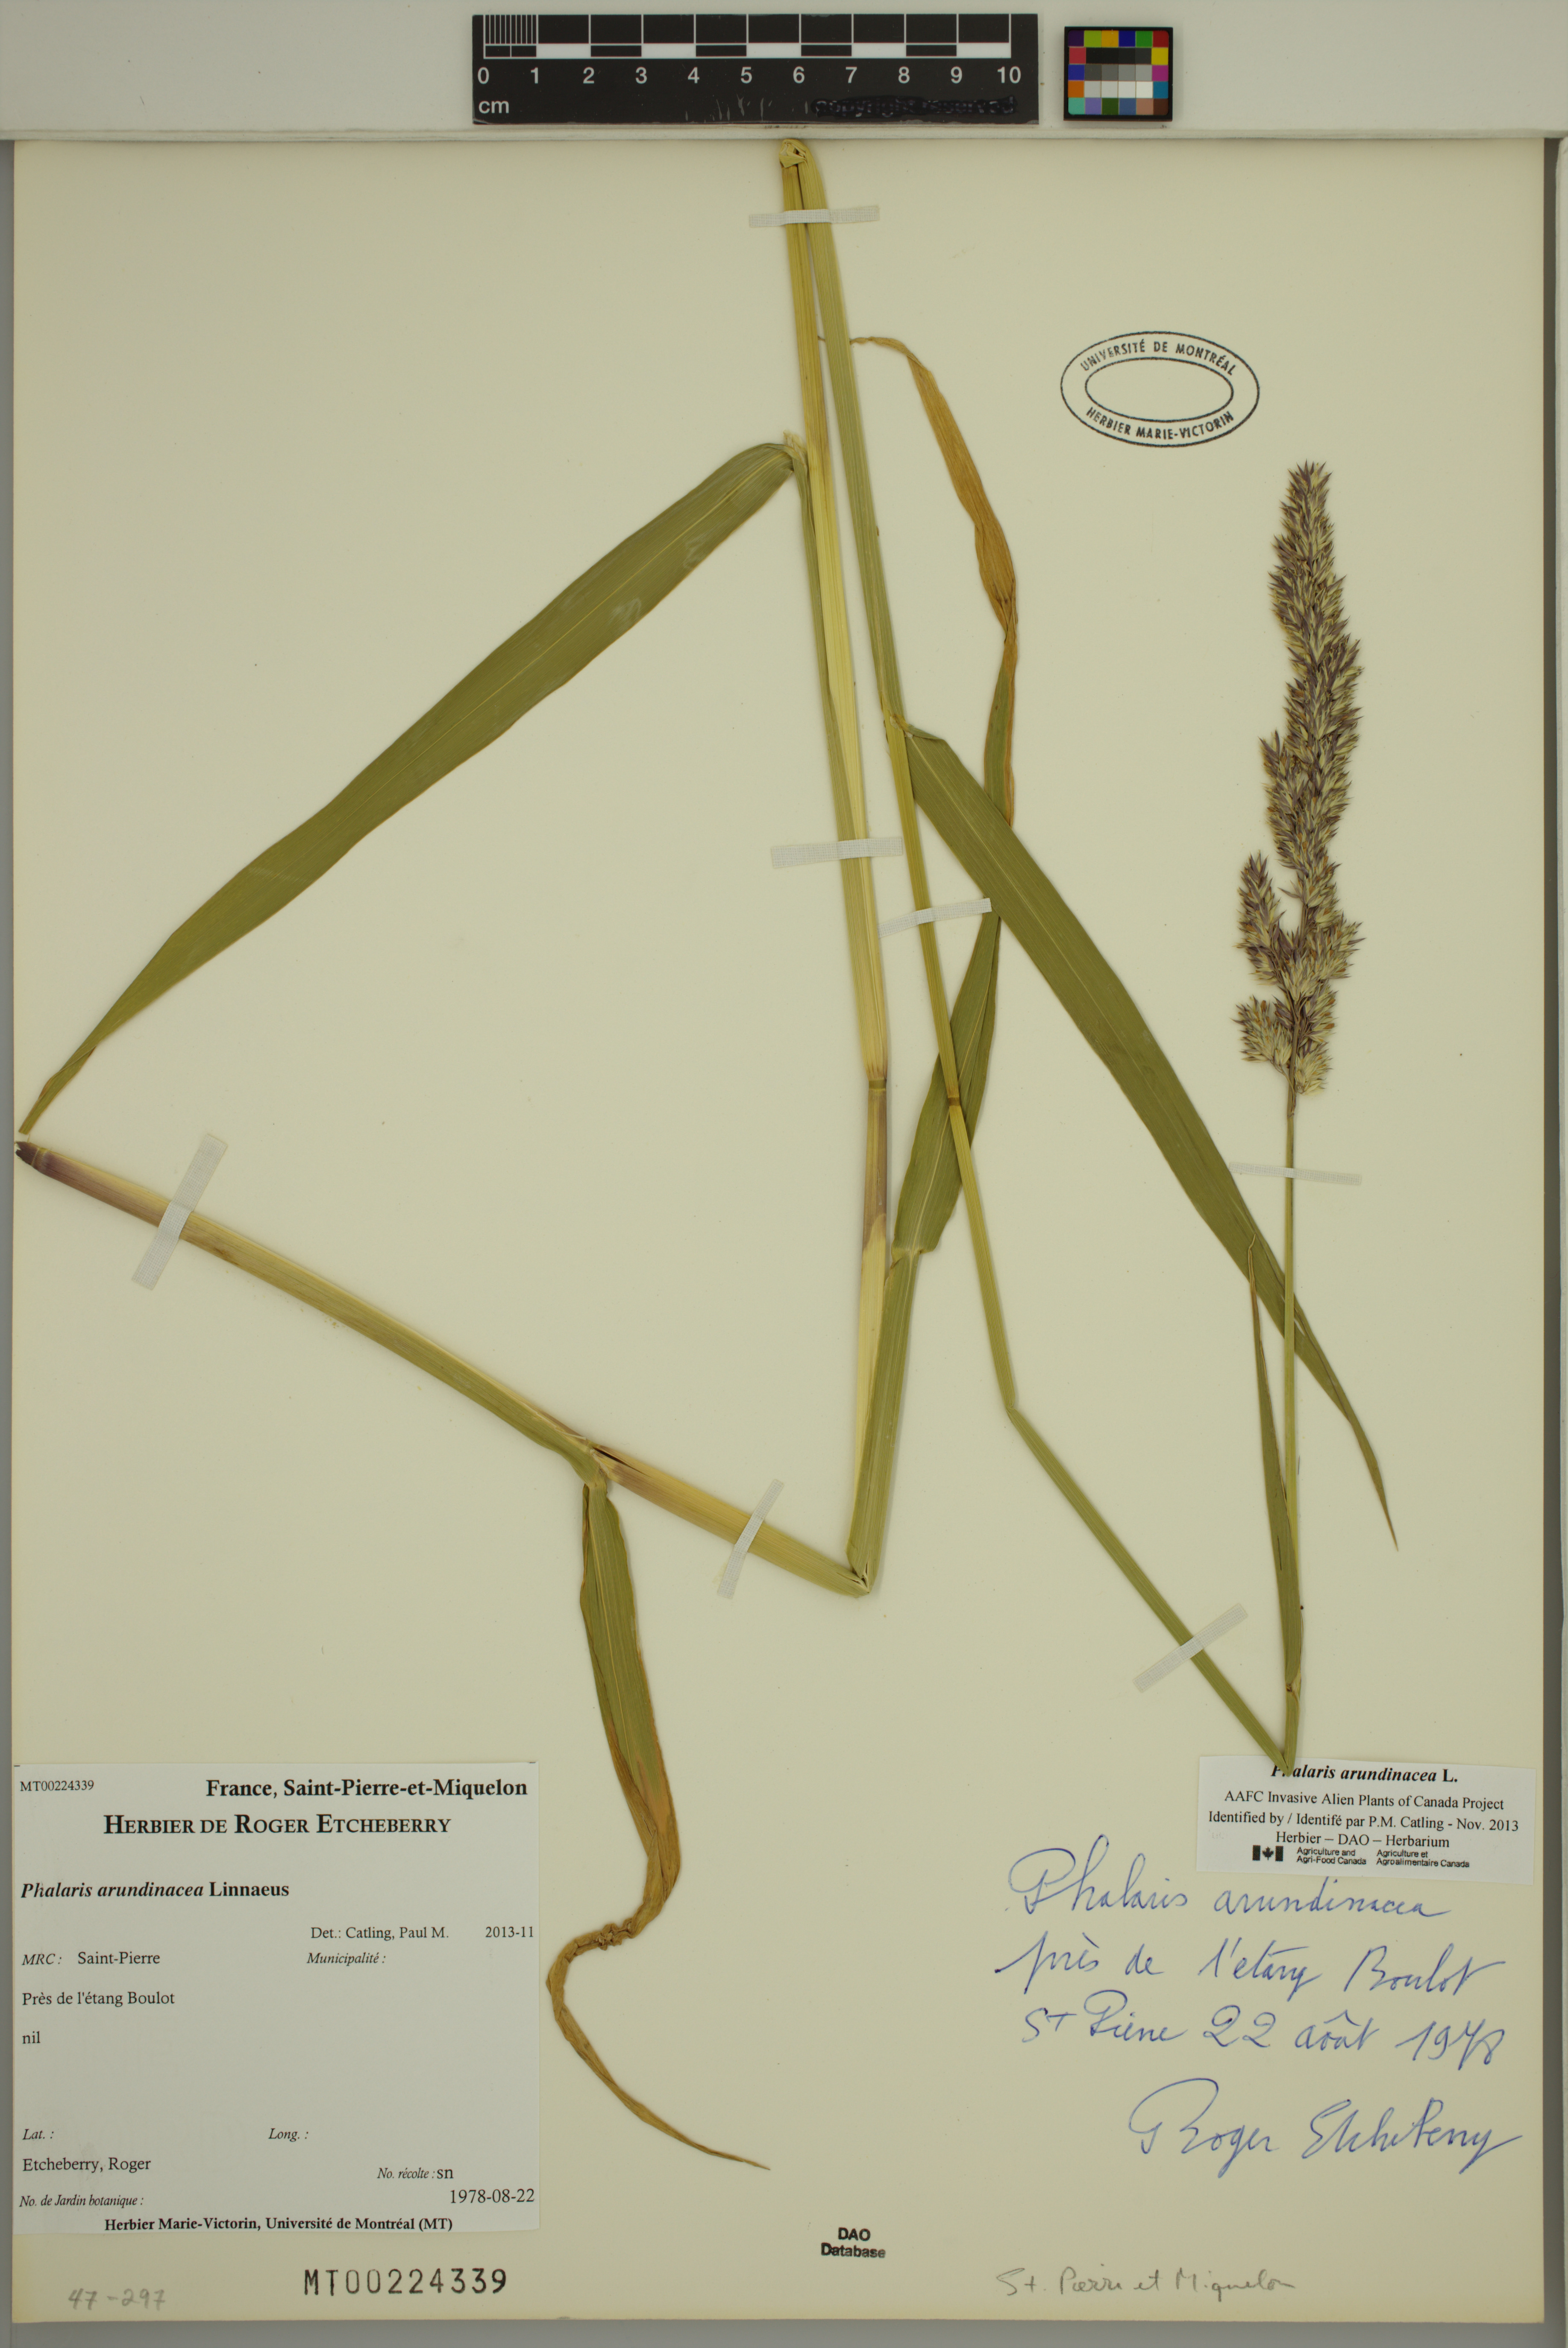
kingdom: Plantae
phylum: Tracheophyta
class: Liliopsida
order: Poales
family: Poaceae
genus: Phalaris
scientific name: Phalaris arundinacea
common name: Reed canary-grass
